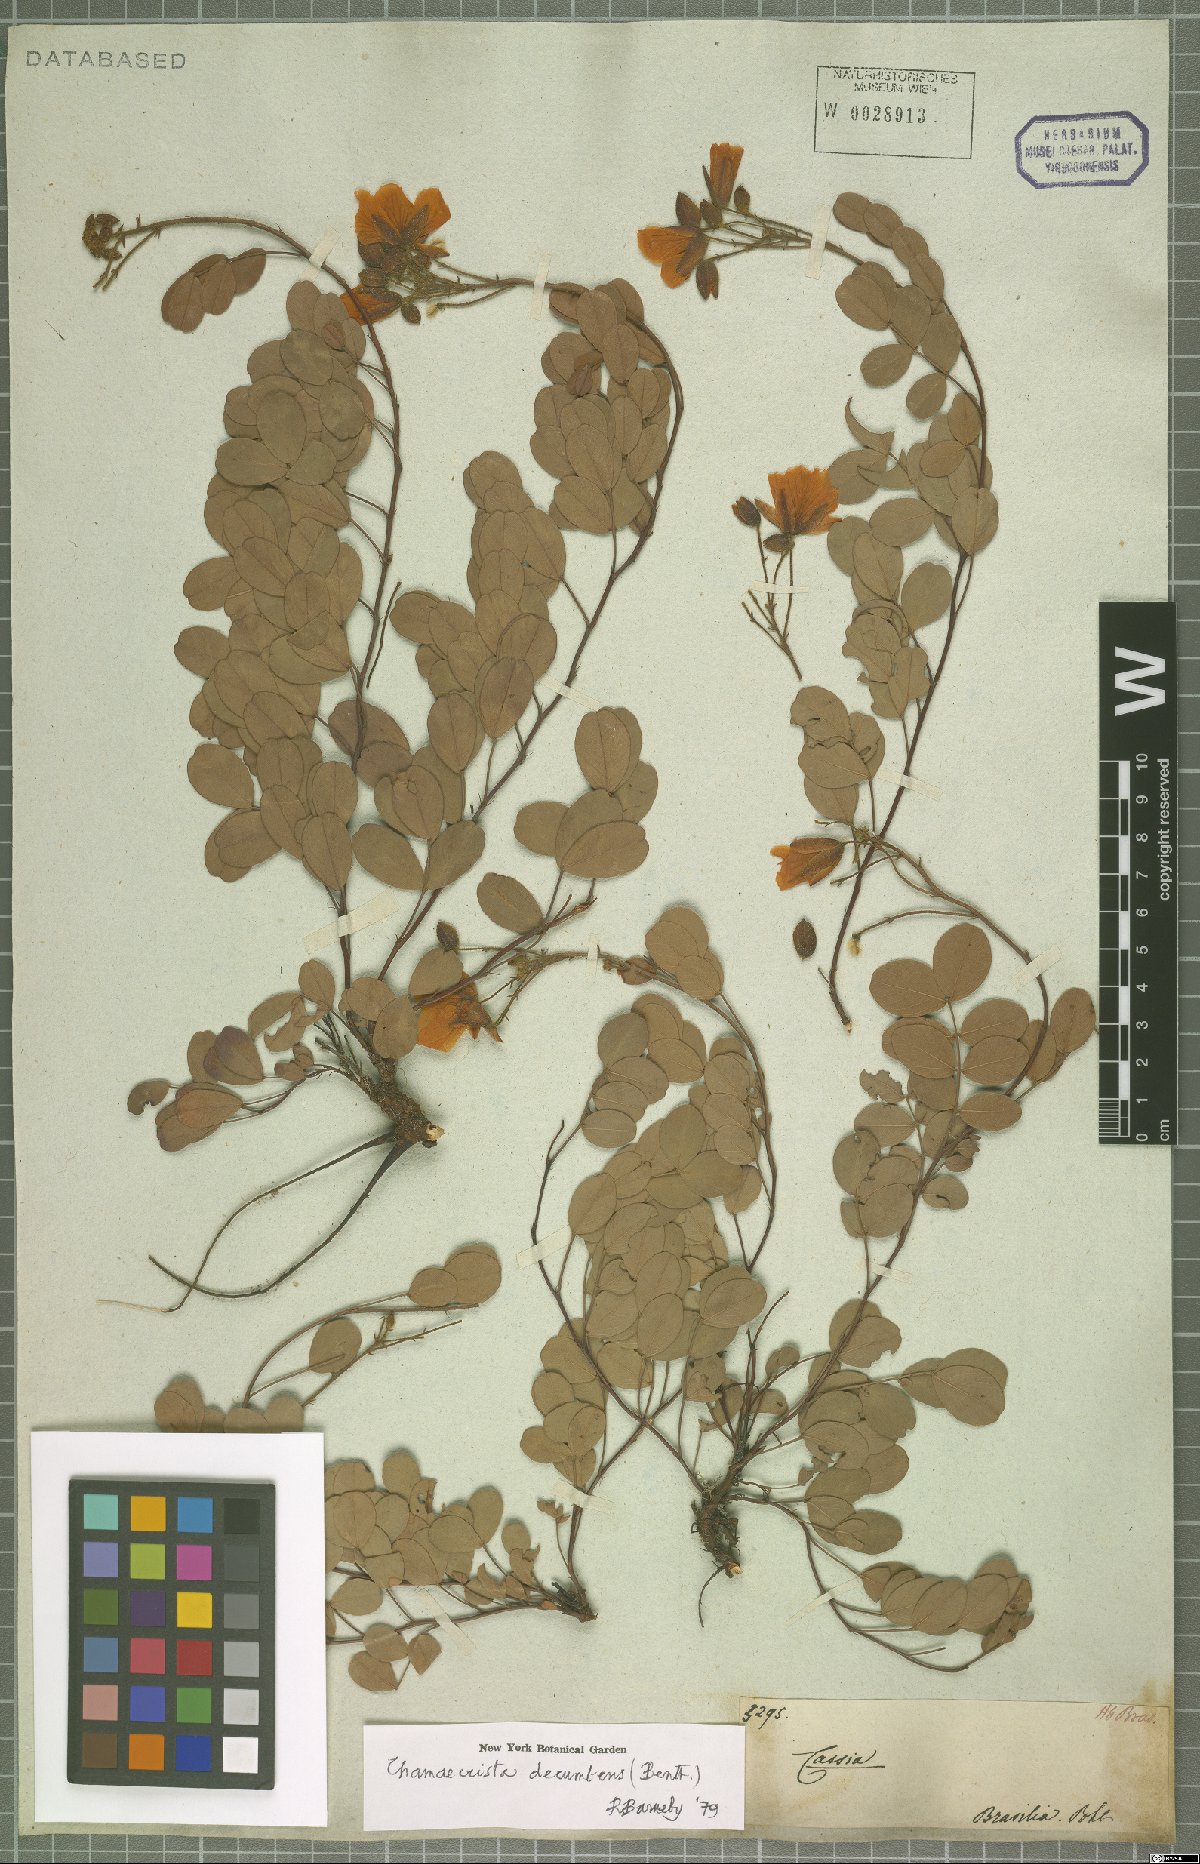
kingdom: Plantae
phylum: Tracheophyta
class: Magnoliopsida
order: Fabales
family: Fabaceae
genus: Chamaecrista
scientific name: Chamaecrista decumbens
